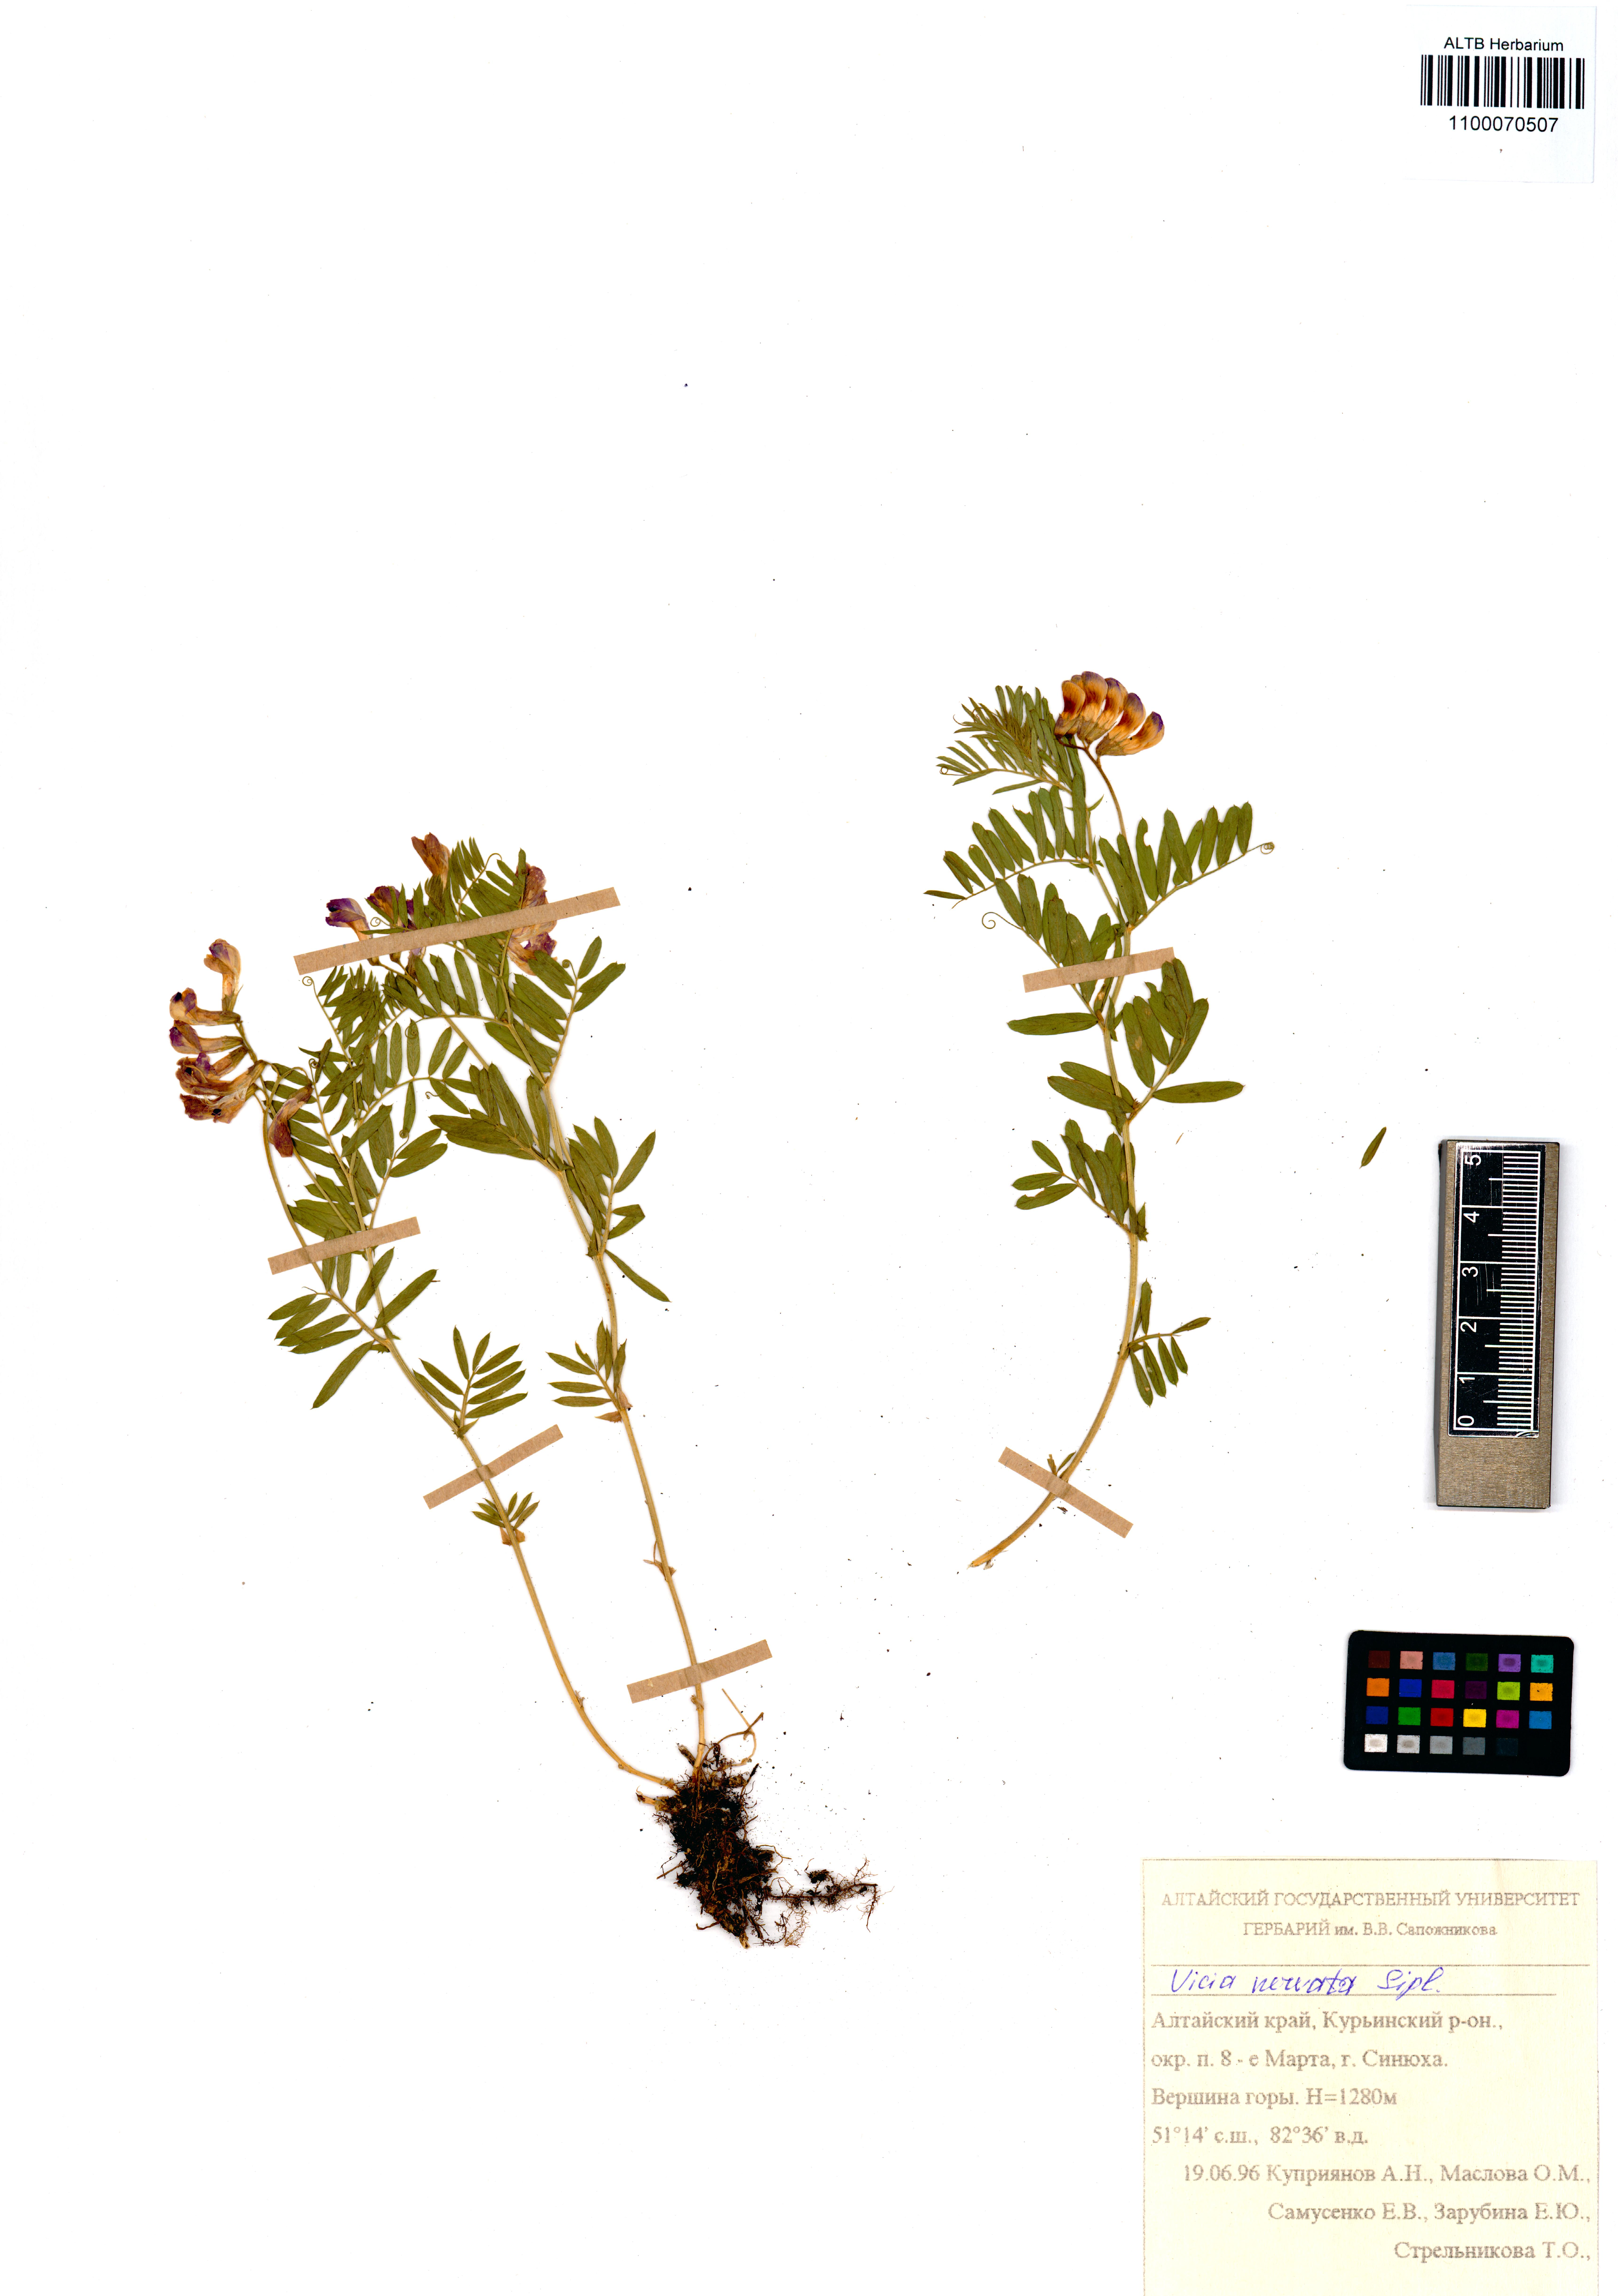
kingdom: Plantae
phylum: Tracheophyta
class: Magnoliopsida
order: Fabales
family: Fabaceae
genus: Vicia
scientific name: Vicia multicaulis
